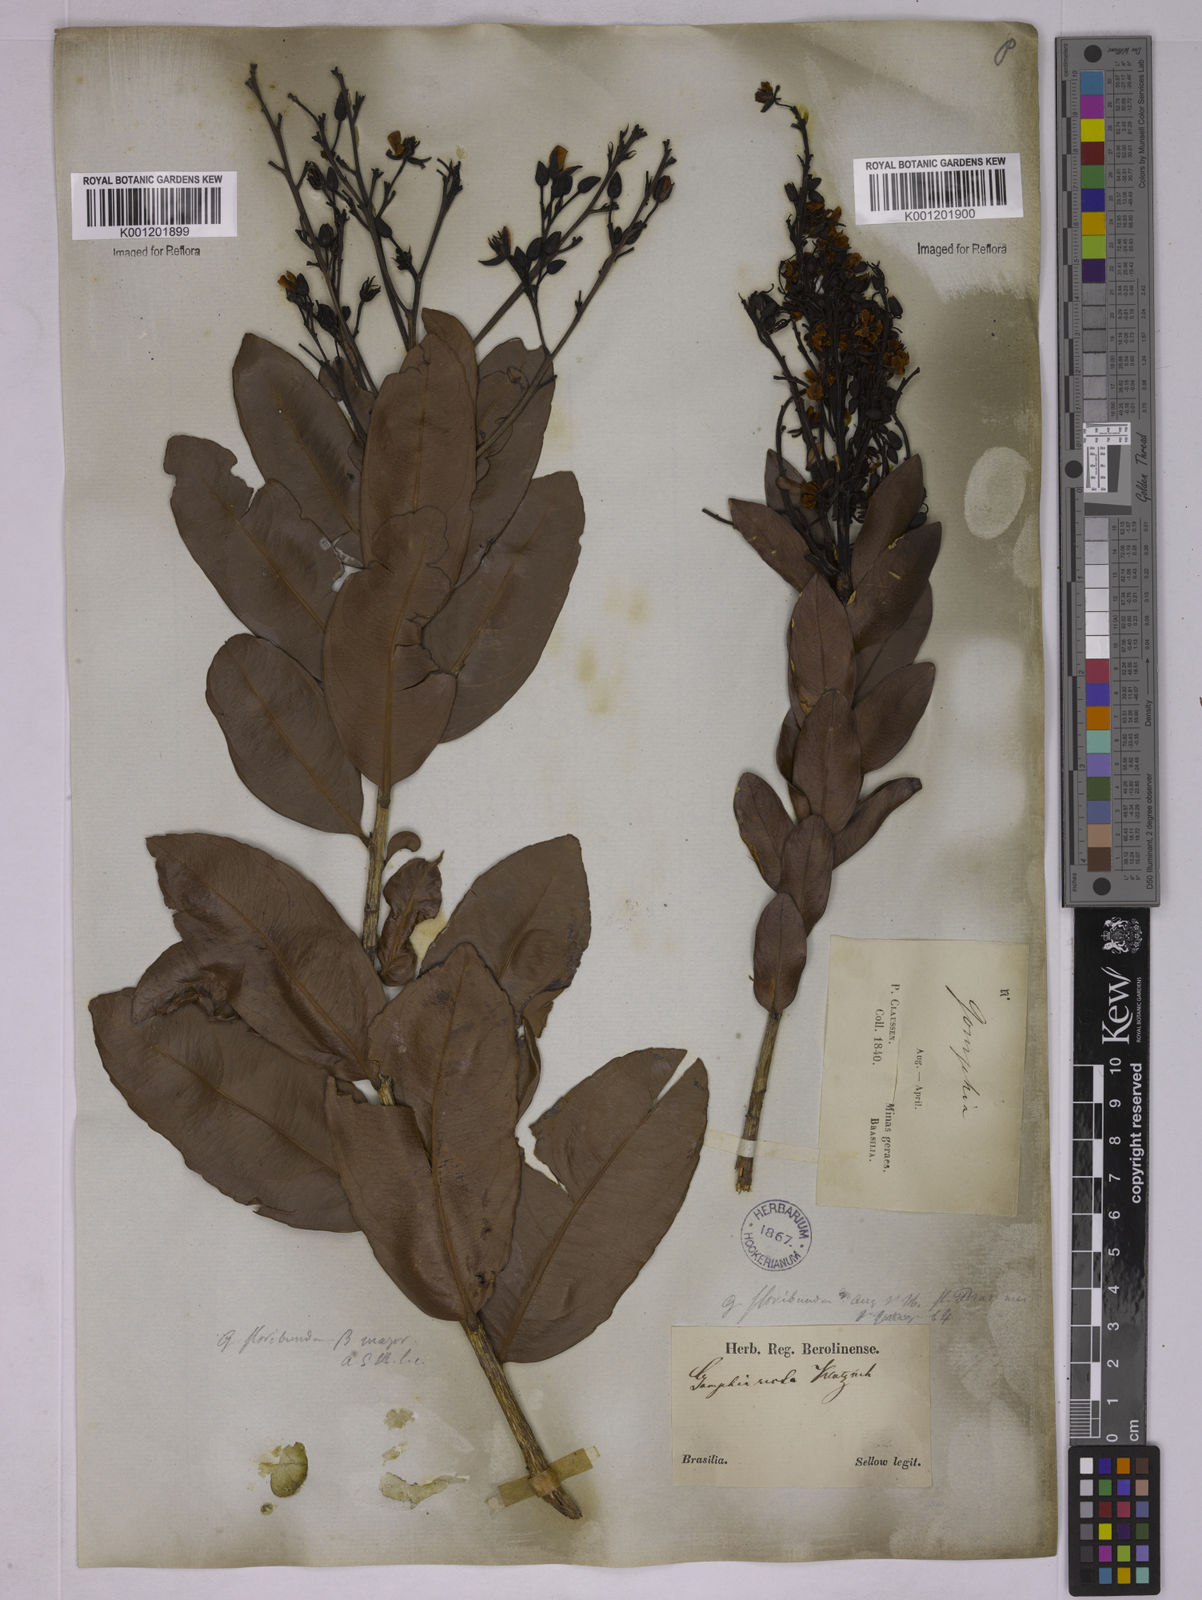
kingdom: Plantae
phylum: Tracheophyta
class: Magnoliopsida
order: Malpighiales
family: Ochnaceae
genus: Ouratea
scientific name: Ouratea floribunda
